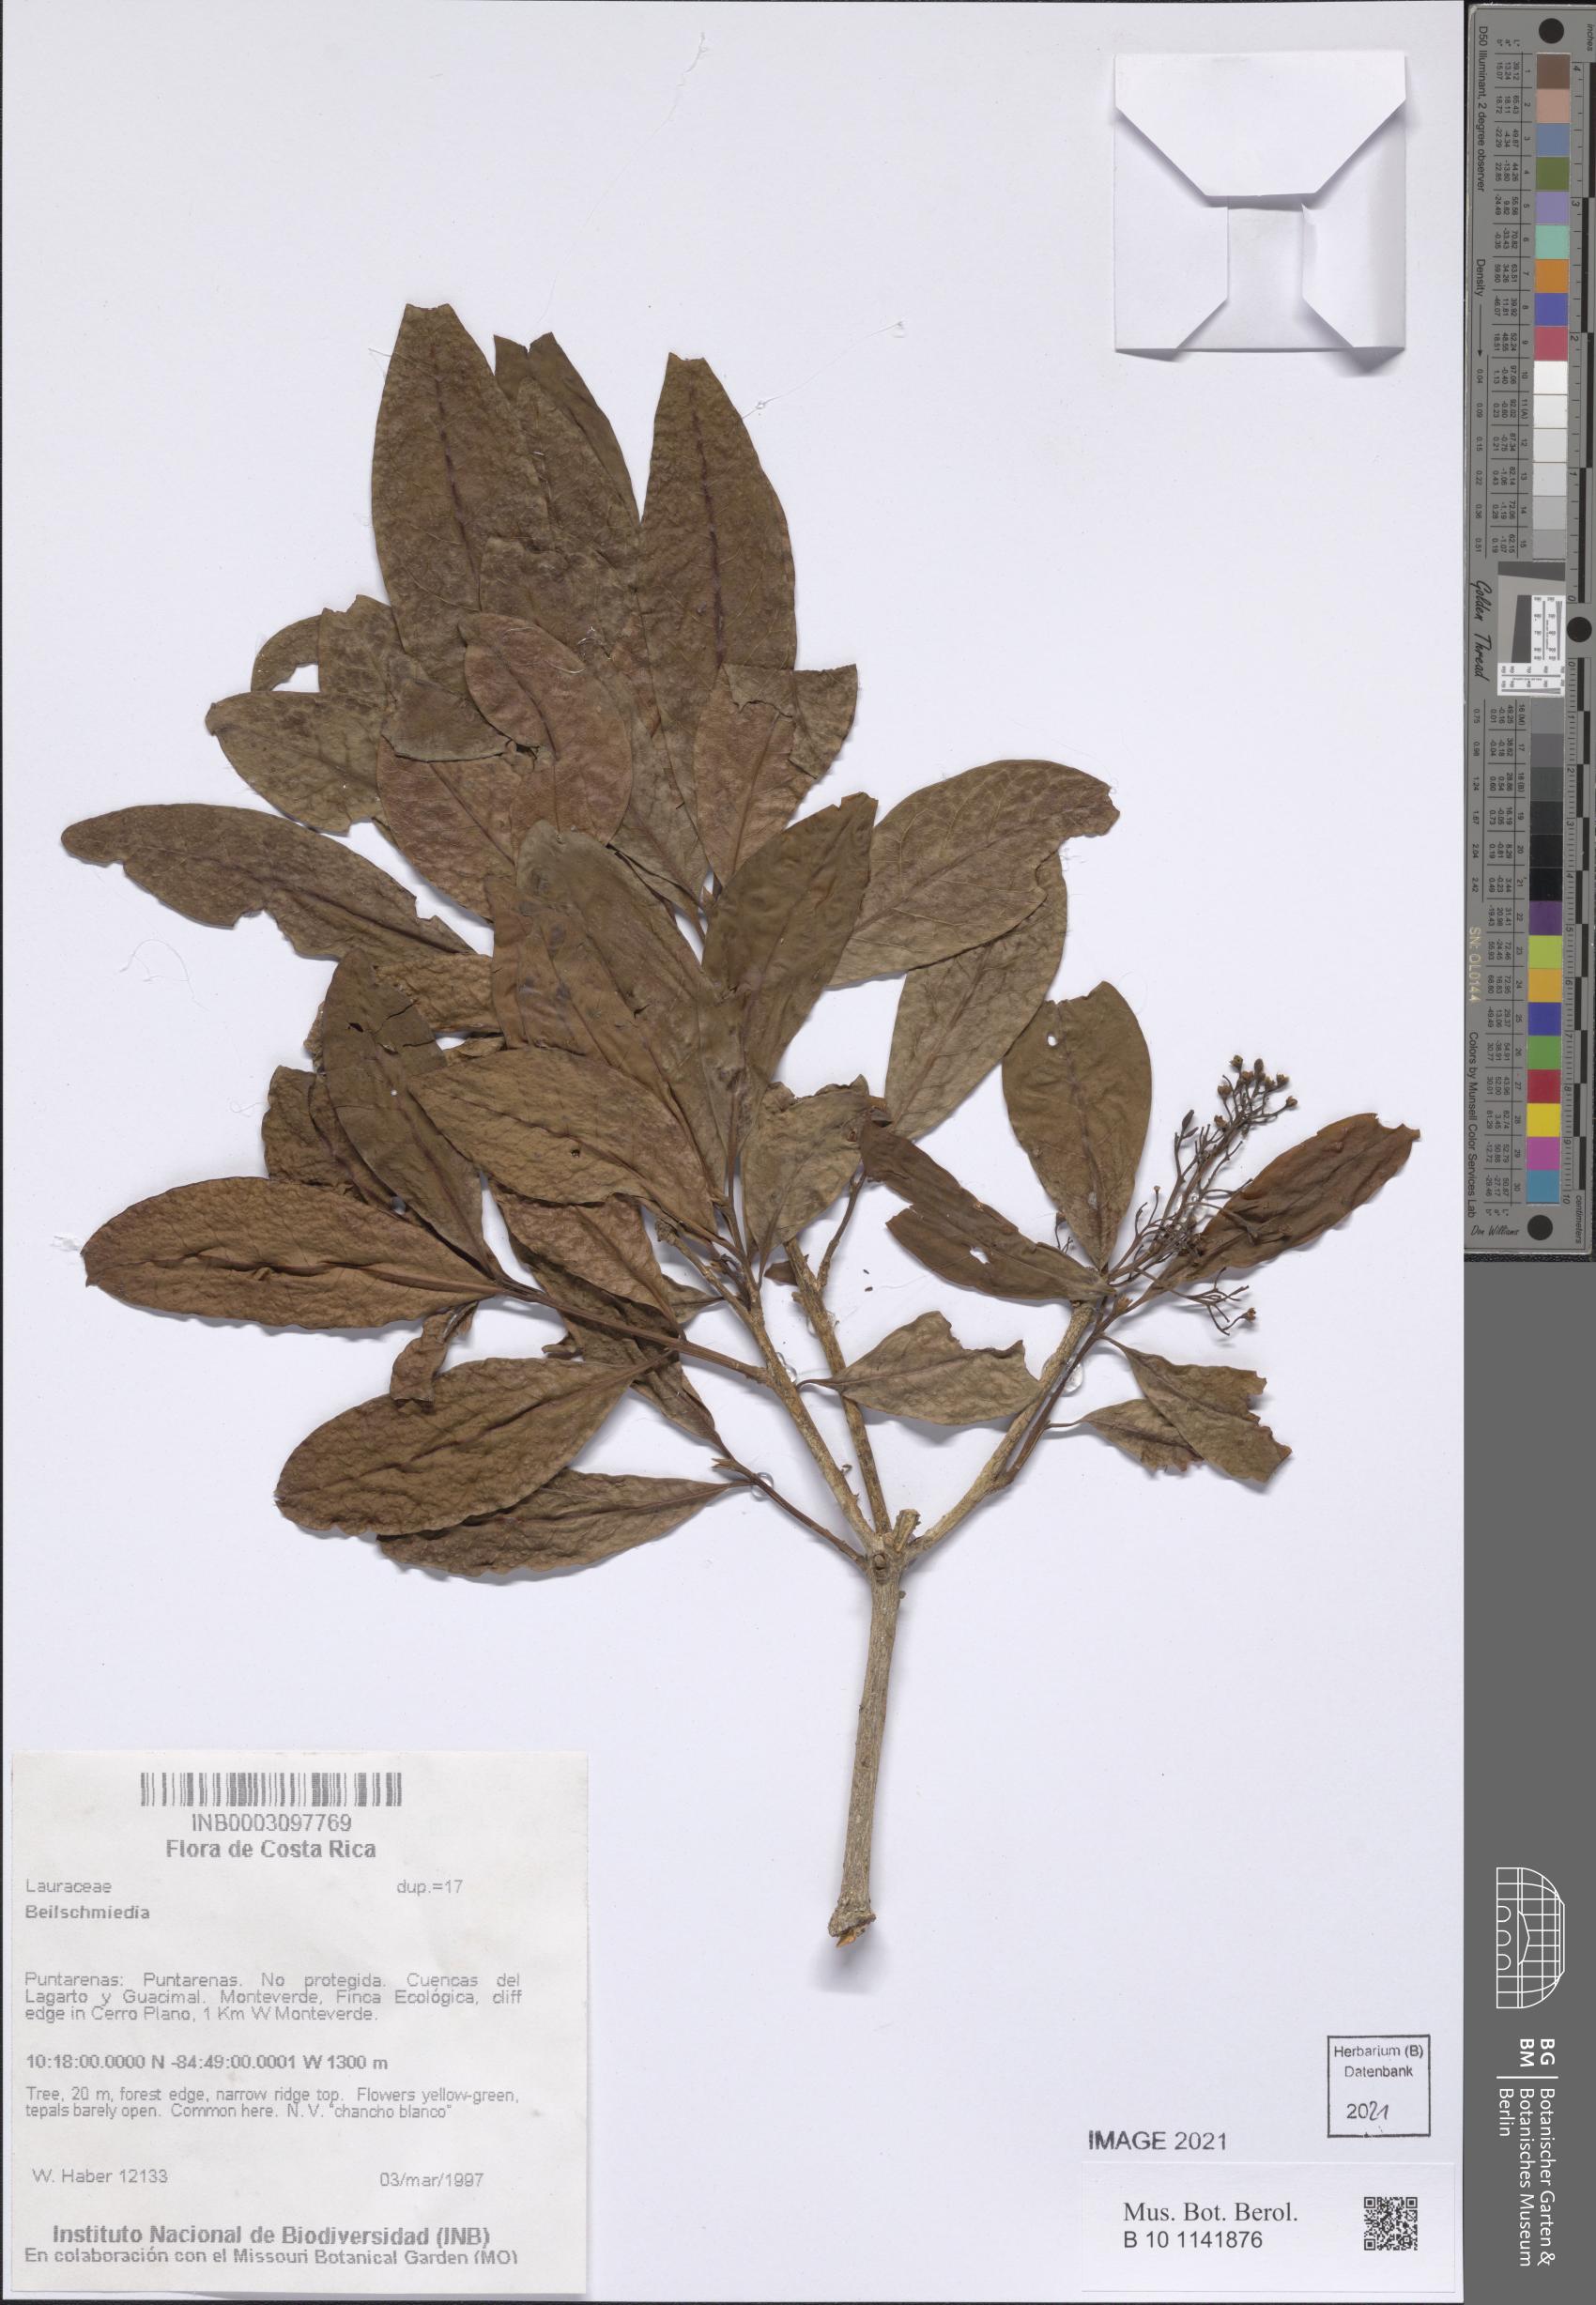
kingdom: Plantae
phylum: Tracheophyta
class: Magnoliopsida
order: Laurales
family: Lauraceae
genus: Beilschmiedia
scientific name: Beilschmiedia
